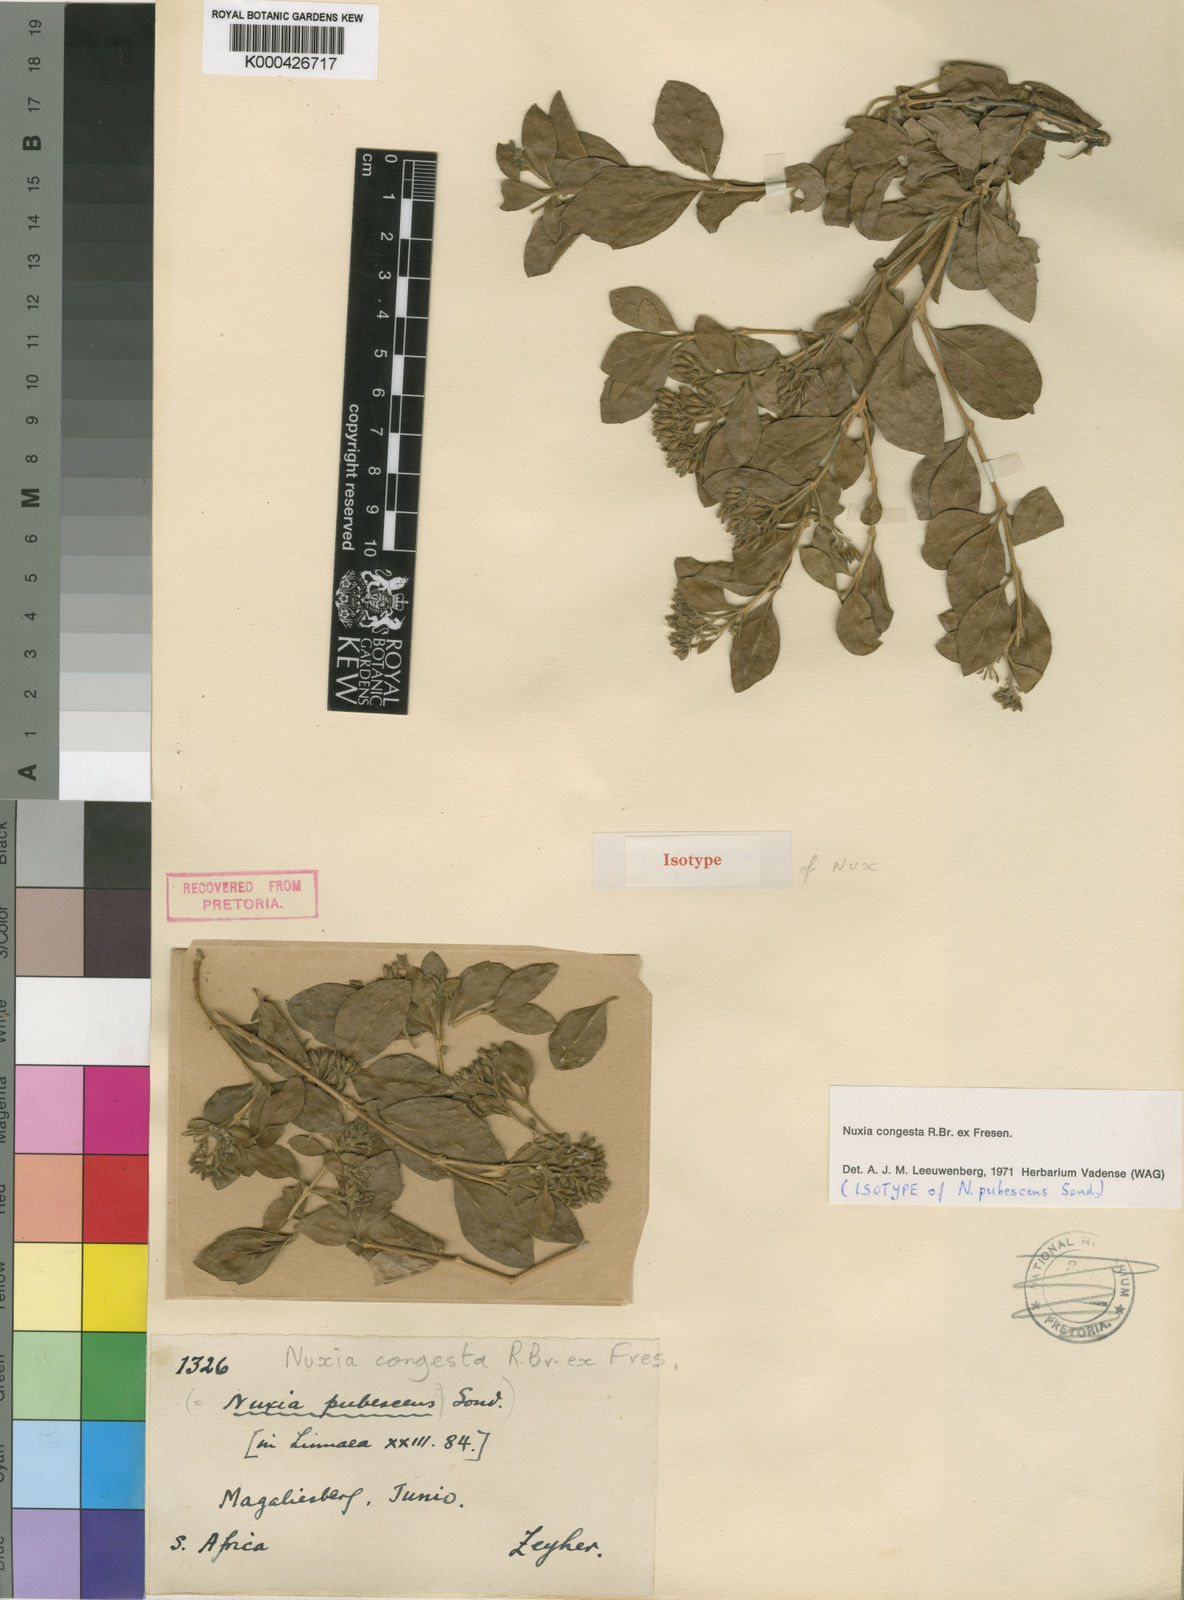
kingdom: Plantae
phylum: Tracheophyta
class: Magnoliopsida
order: Lamiales
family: Stilbaceae
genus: Nuxia
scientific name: Nuxia congesta
